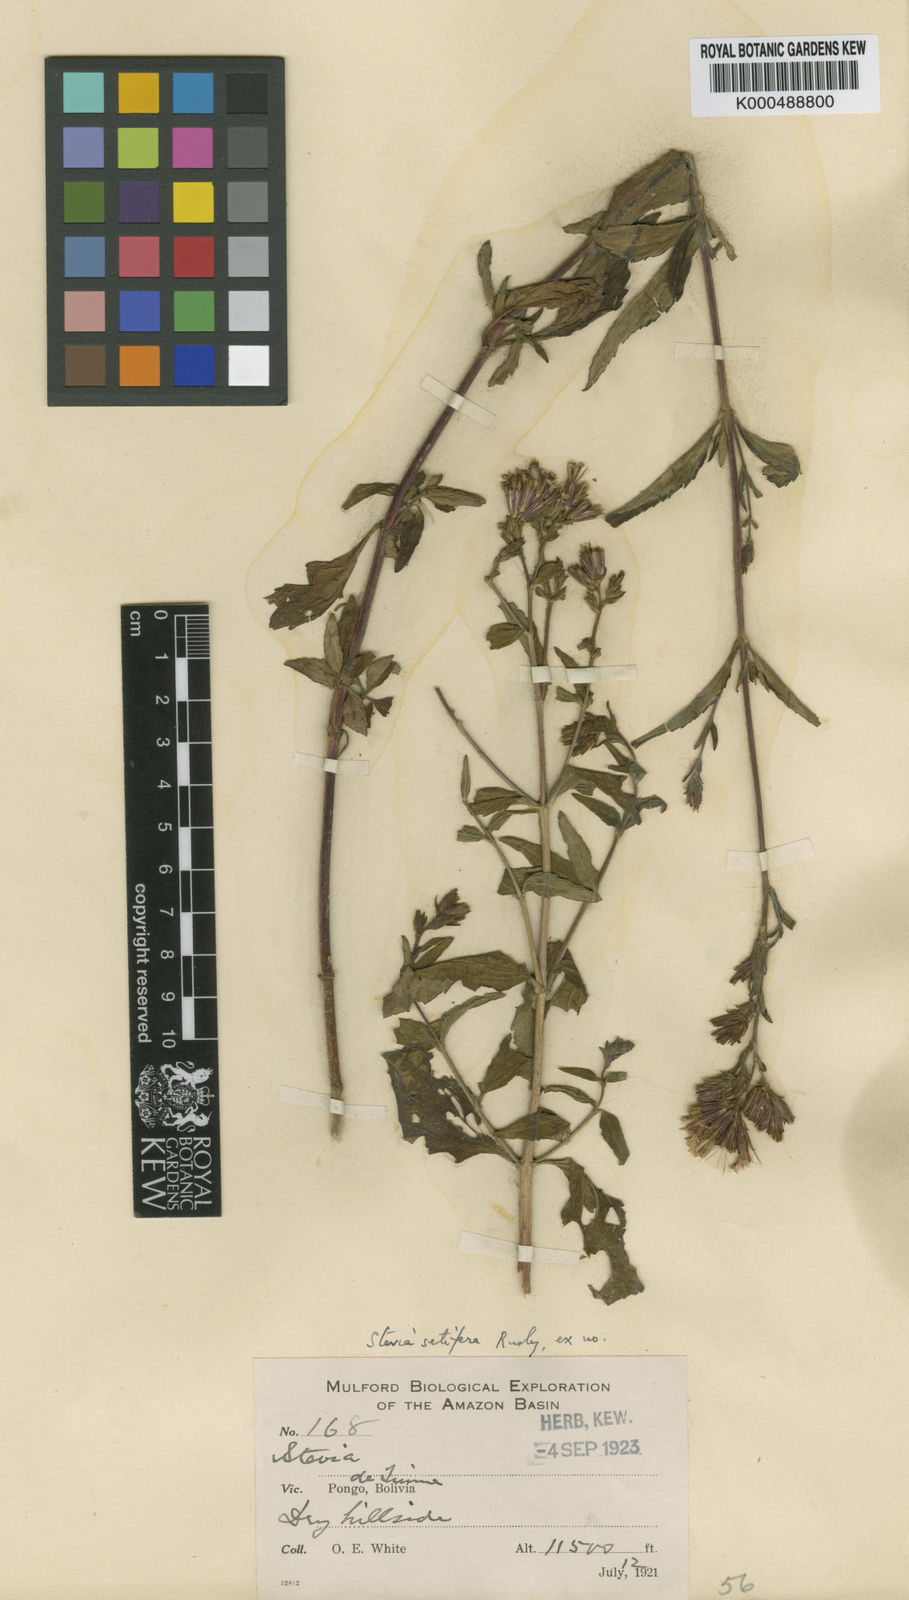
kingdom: Plantae
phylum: Tracheophyta
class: Magnoliopsida
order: Asterales
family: Asteraceae
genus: Stevia
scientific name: Stevia setifera
